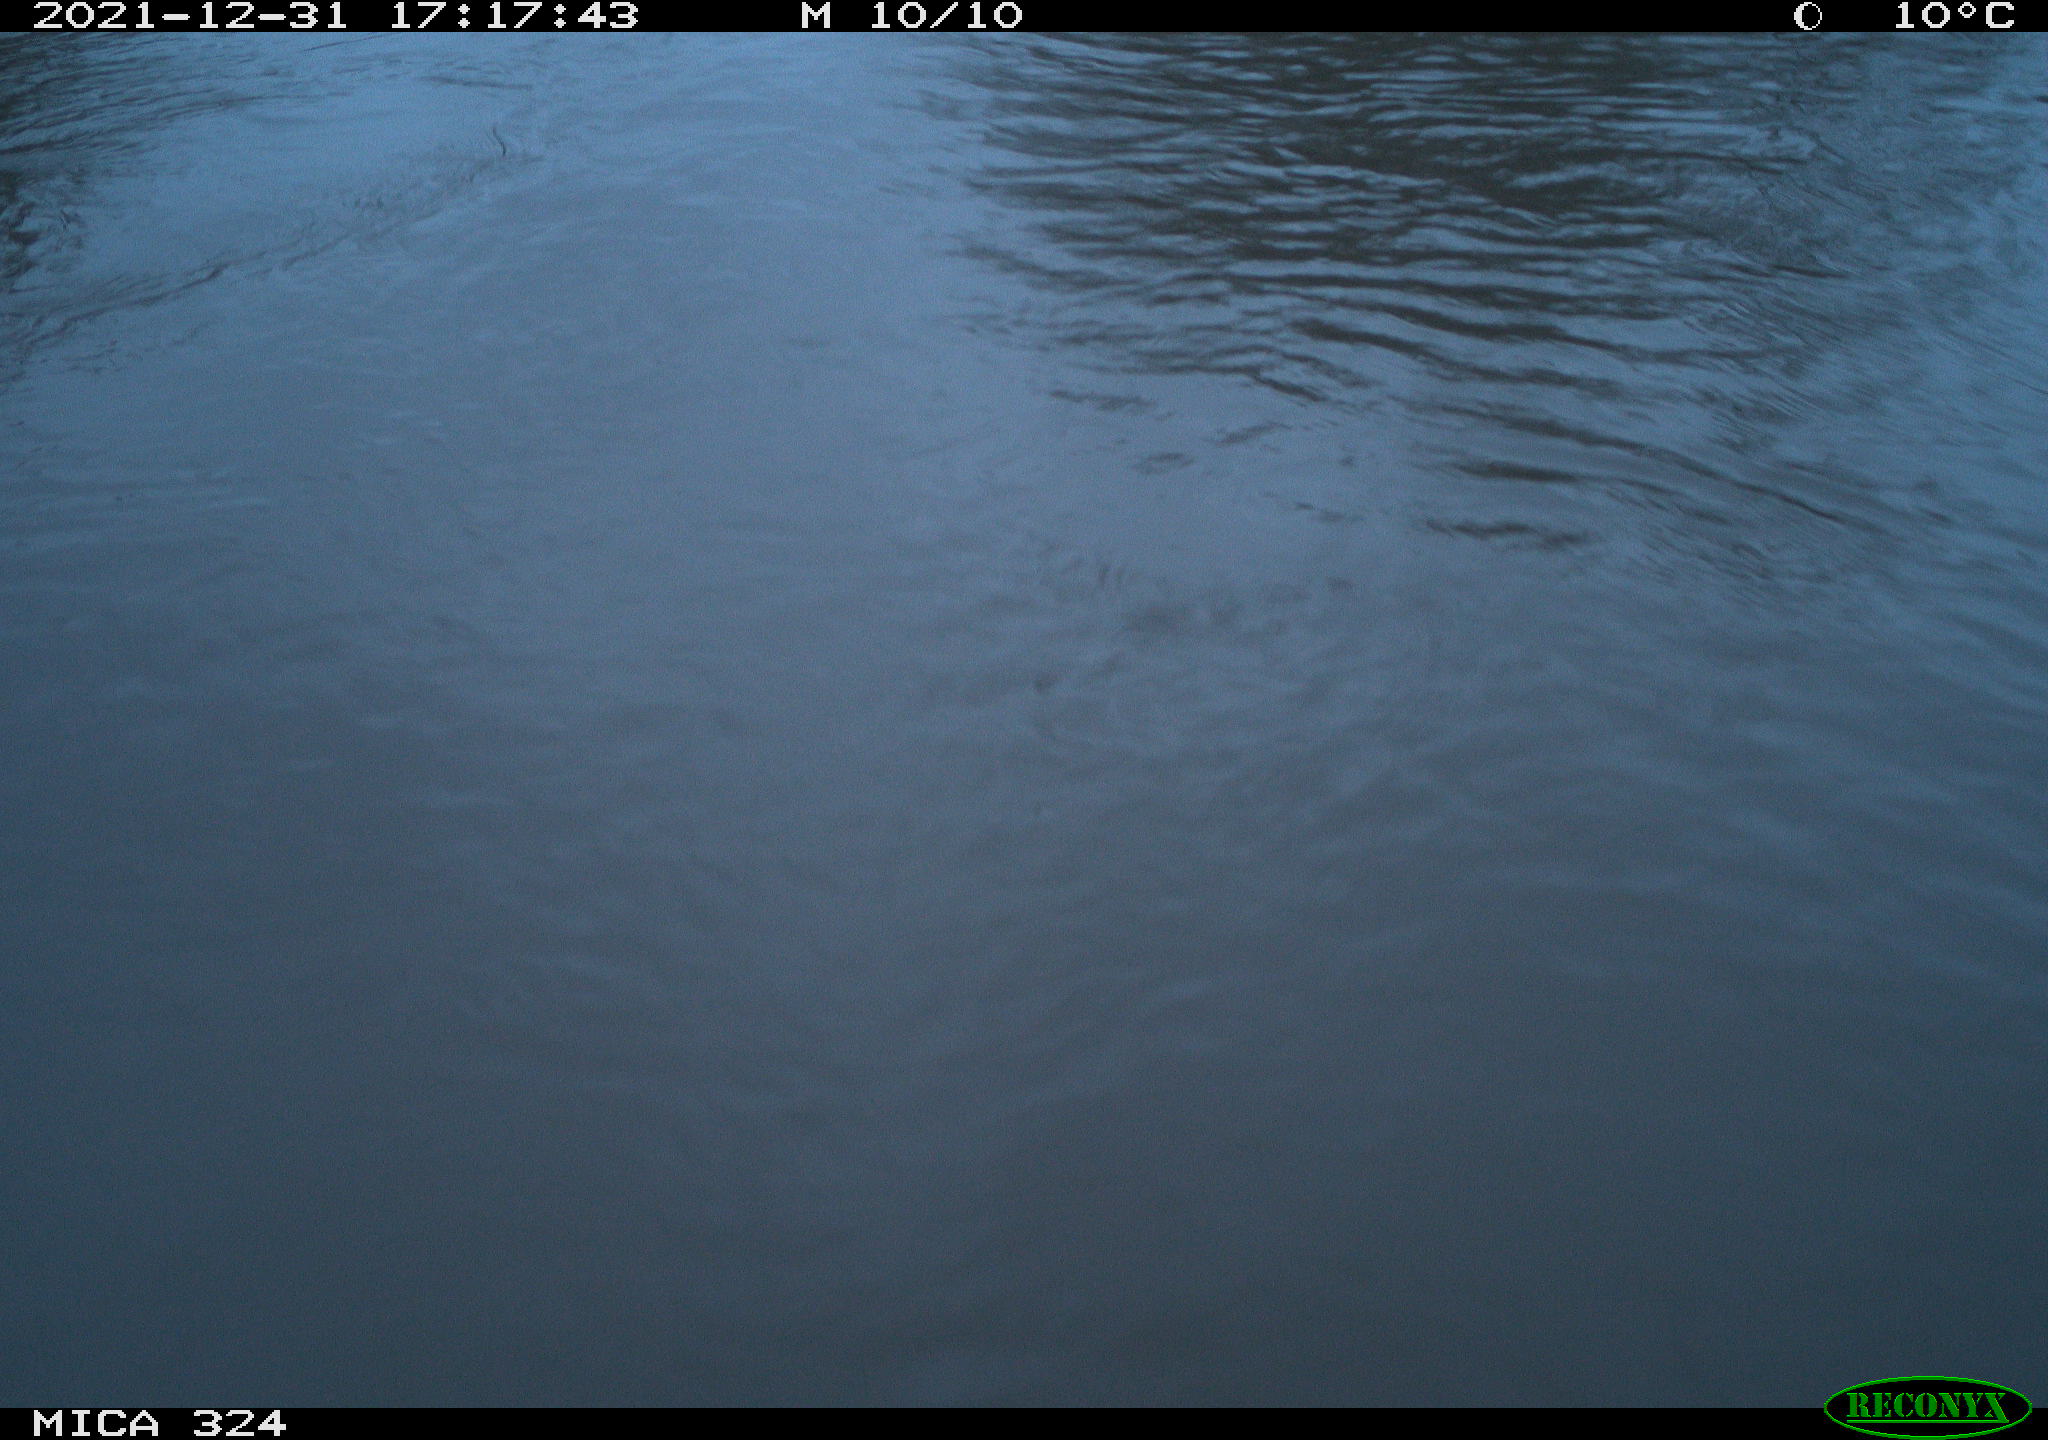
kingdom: Animalia
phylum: Chordata
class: Mammalia
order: Rodentia
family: Cricetidae
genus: Ondatra
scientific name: Ondatra zibethicus
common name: Muskrat
